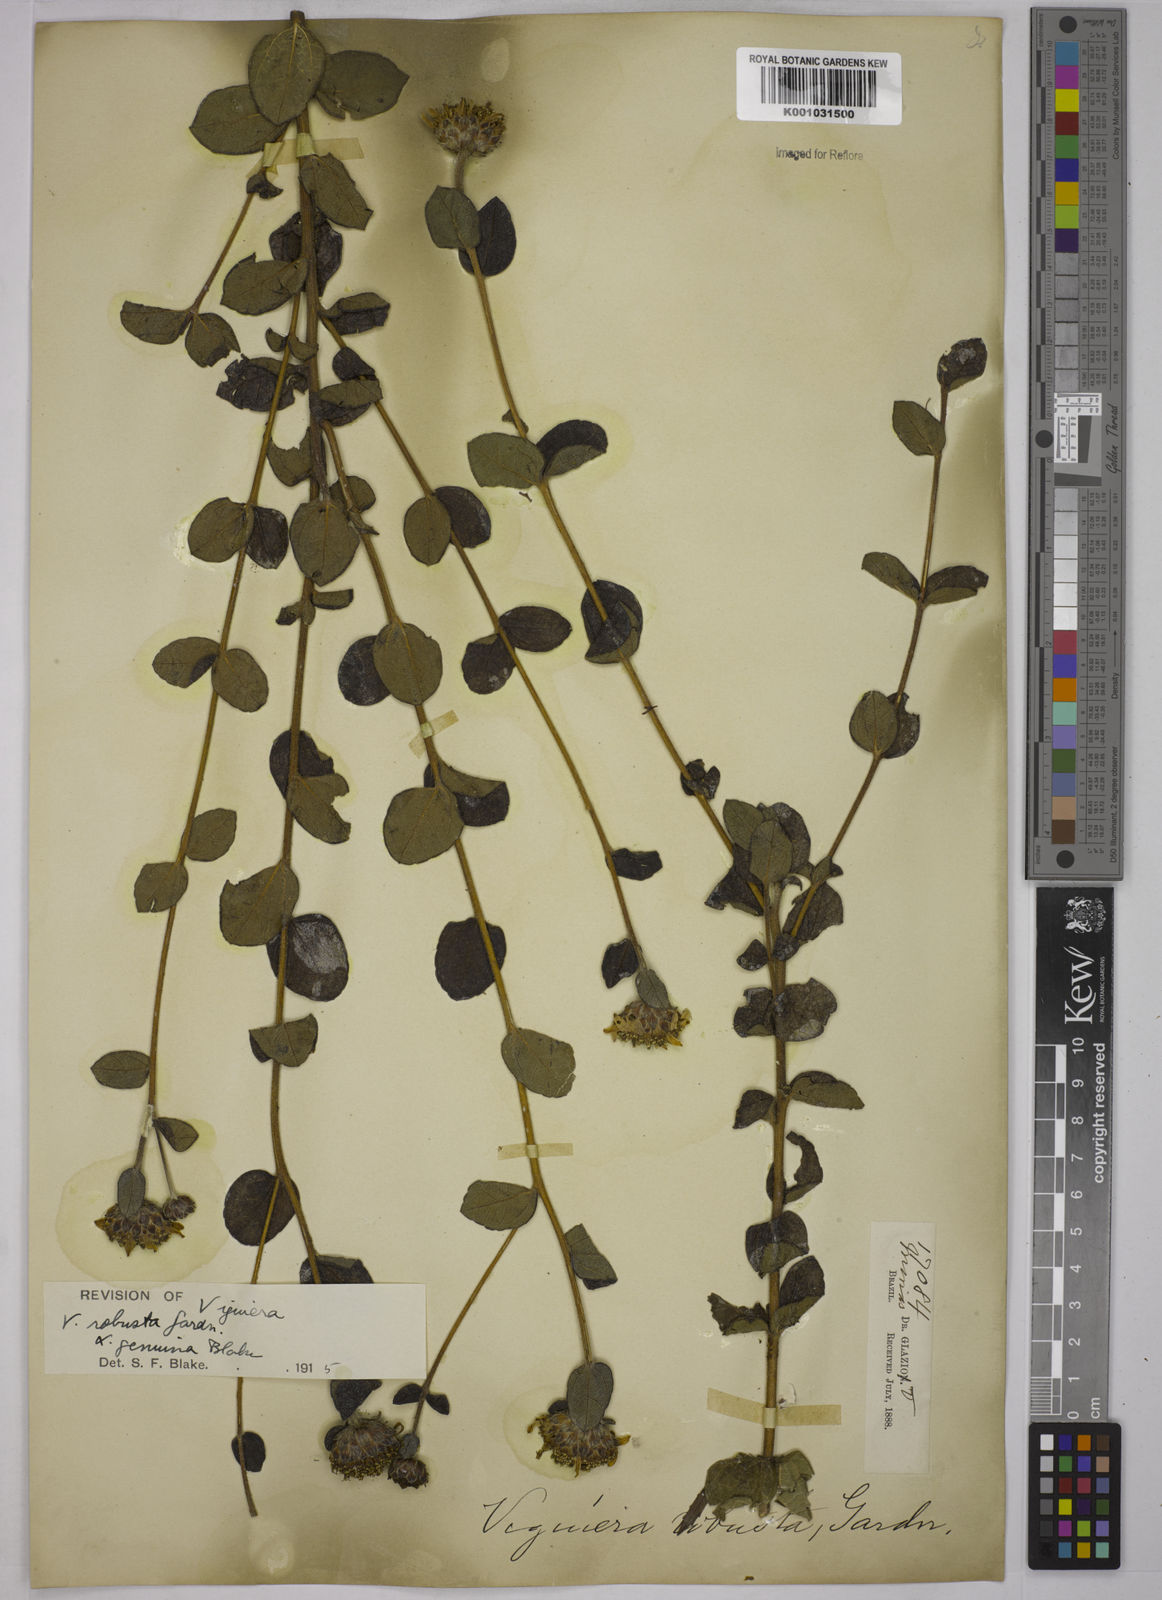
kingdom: Plantae
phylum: Tracheophyta
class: Magnoliopsida
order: Asterales
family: Asteraceae
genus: Aldama
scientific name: Aldama robusta
